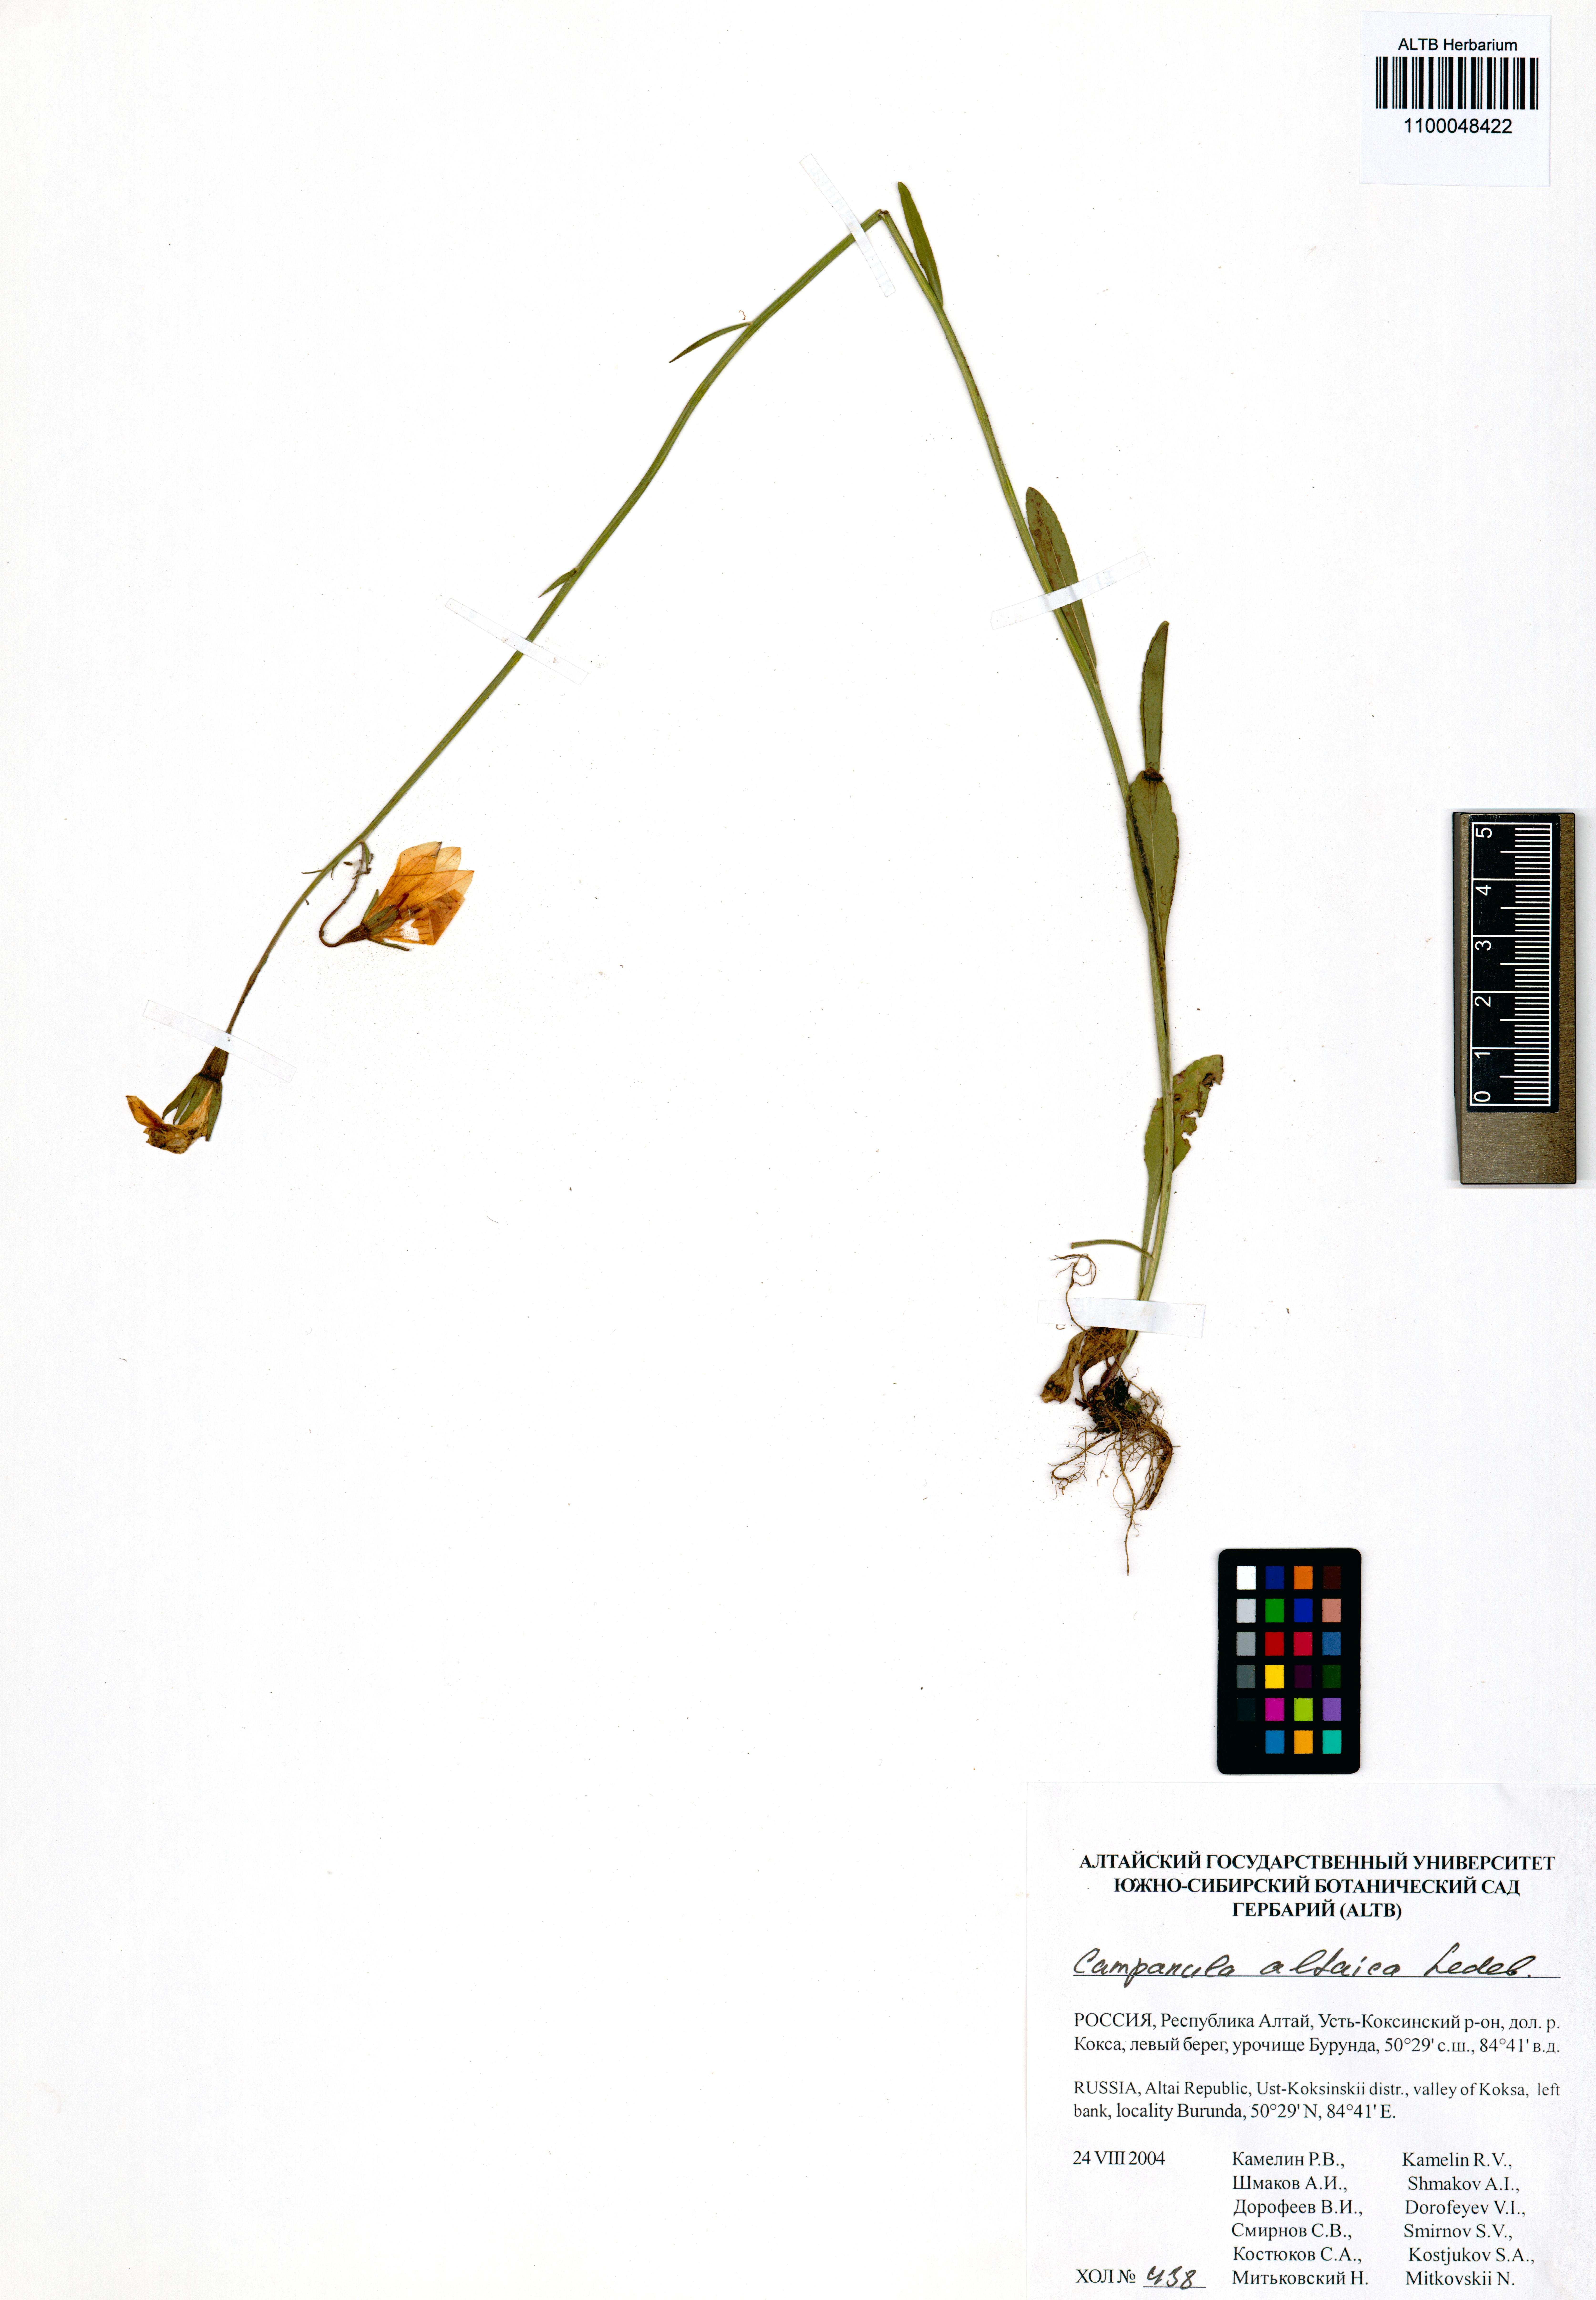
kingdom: Plantae
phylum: Tracheophyta
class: Magnoliopsida
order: Asterales
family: Campanulaceae
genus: Campanula
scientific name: Campanula stevenii
